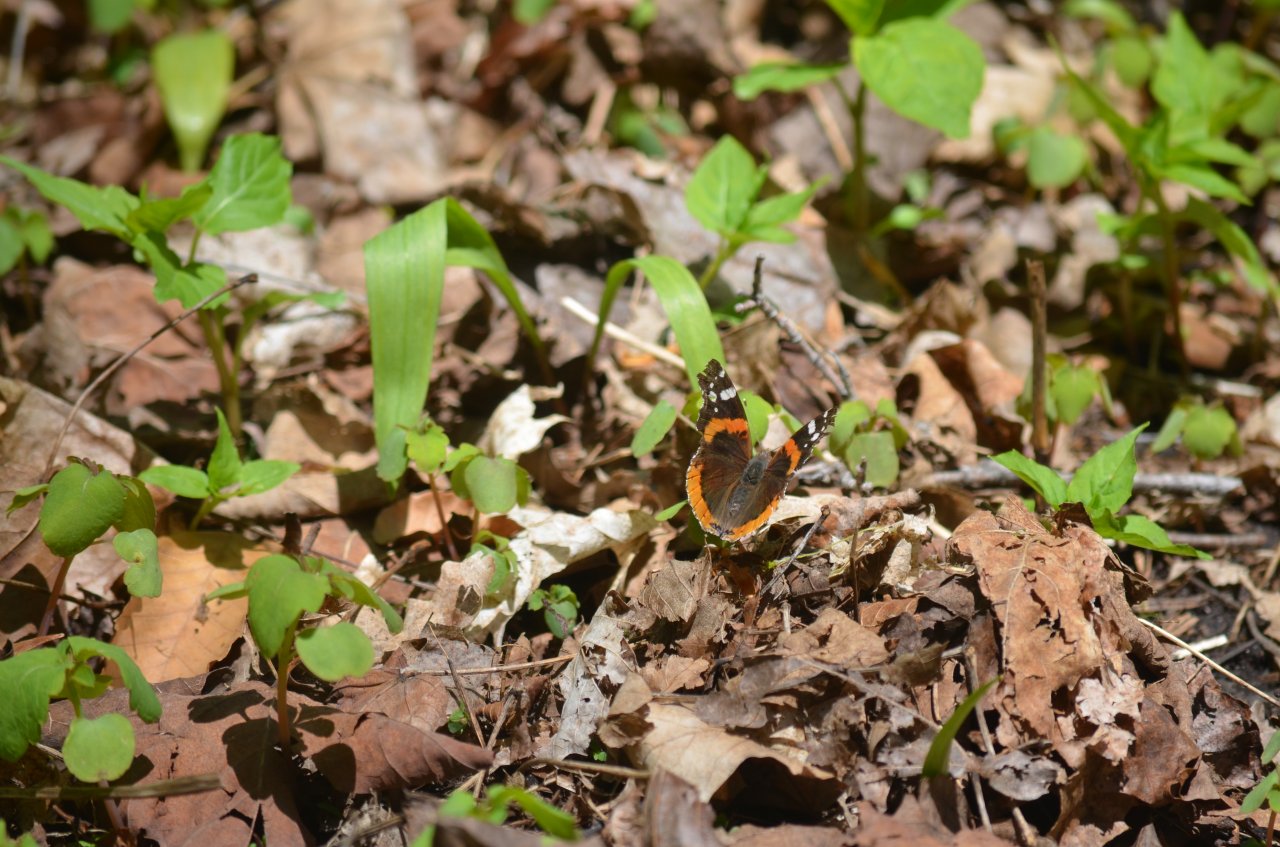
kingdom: Animalia
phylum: Arthropoda
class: Insecta
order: Lepidoptera
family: Nymphalidae
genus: Vanessa
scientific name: Vanessa atalanta
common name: Red Admiral
